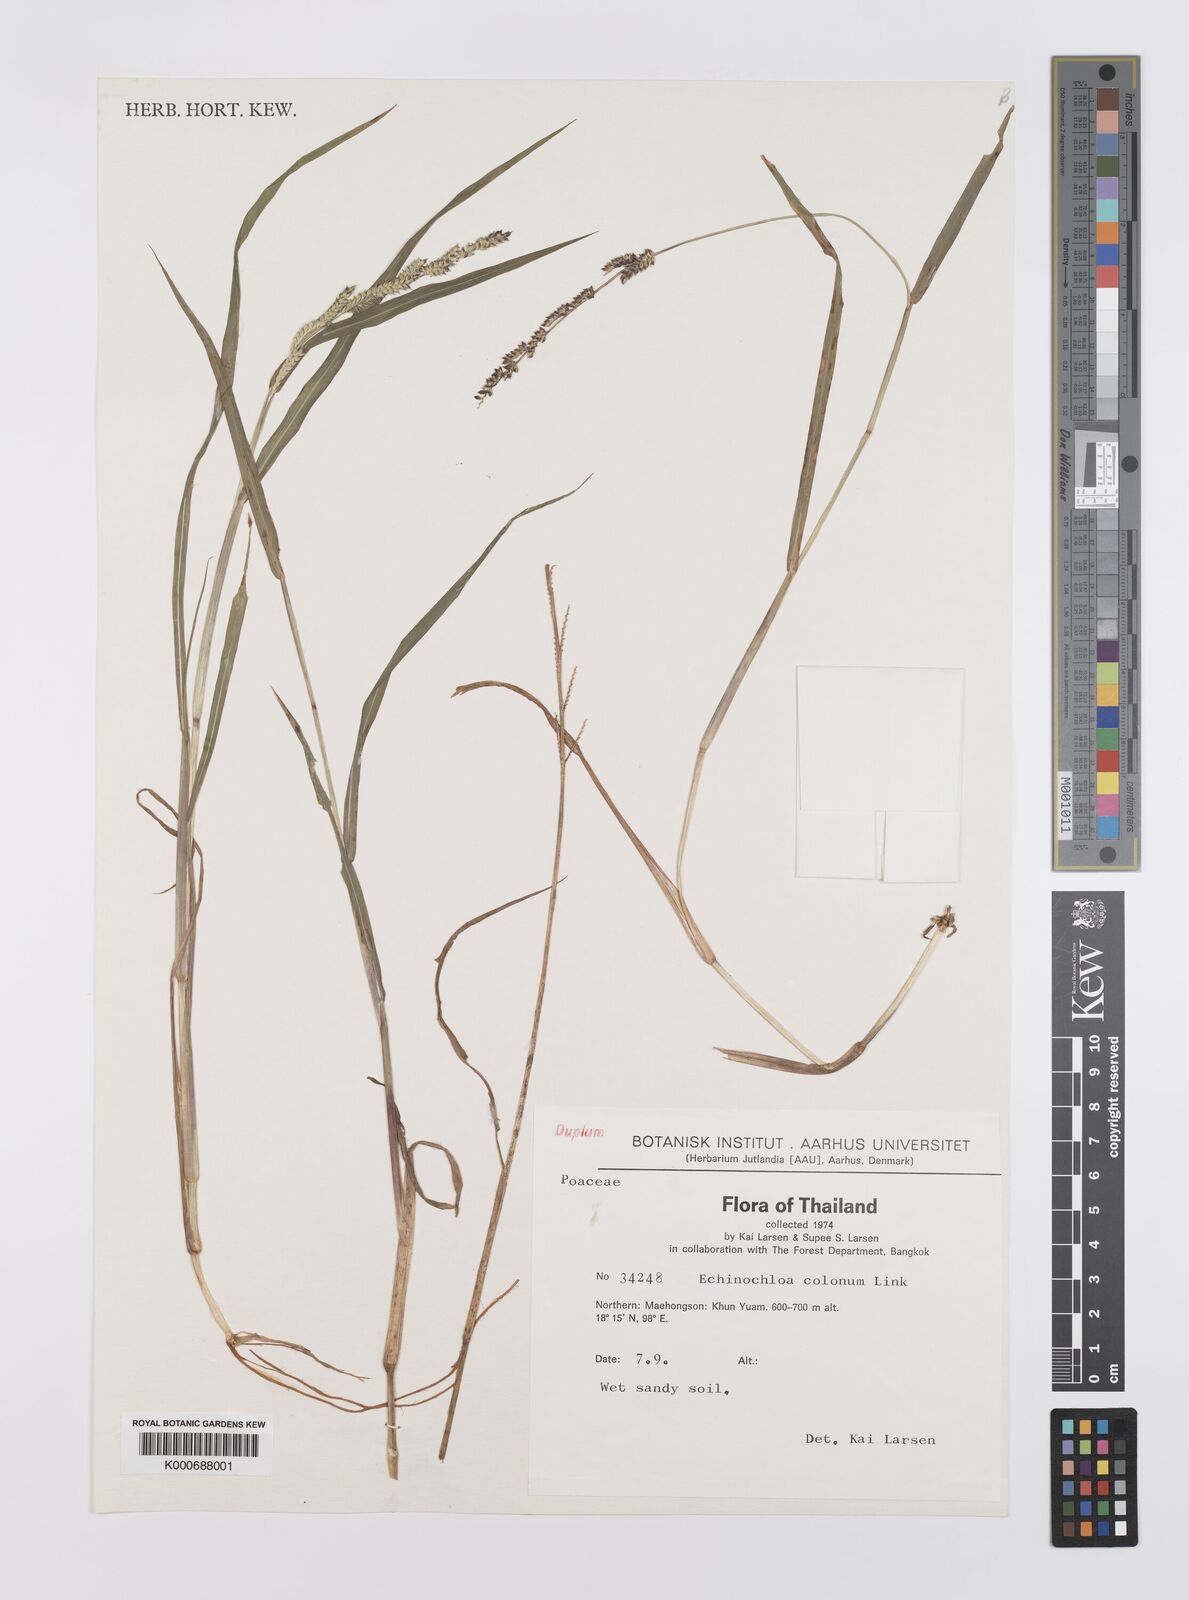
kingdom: Plantae
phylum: Tracheophyta
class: Liliopsida
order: Poales
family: Poaceae
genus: Echinochloa
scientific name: Echinochloa colonum
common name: Jungle rice
